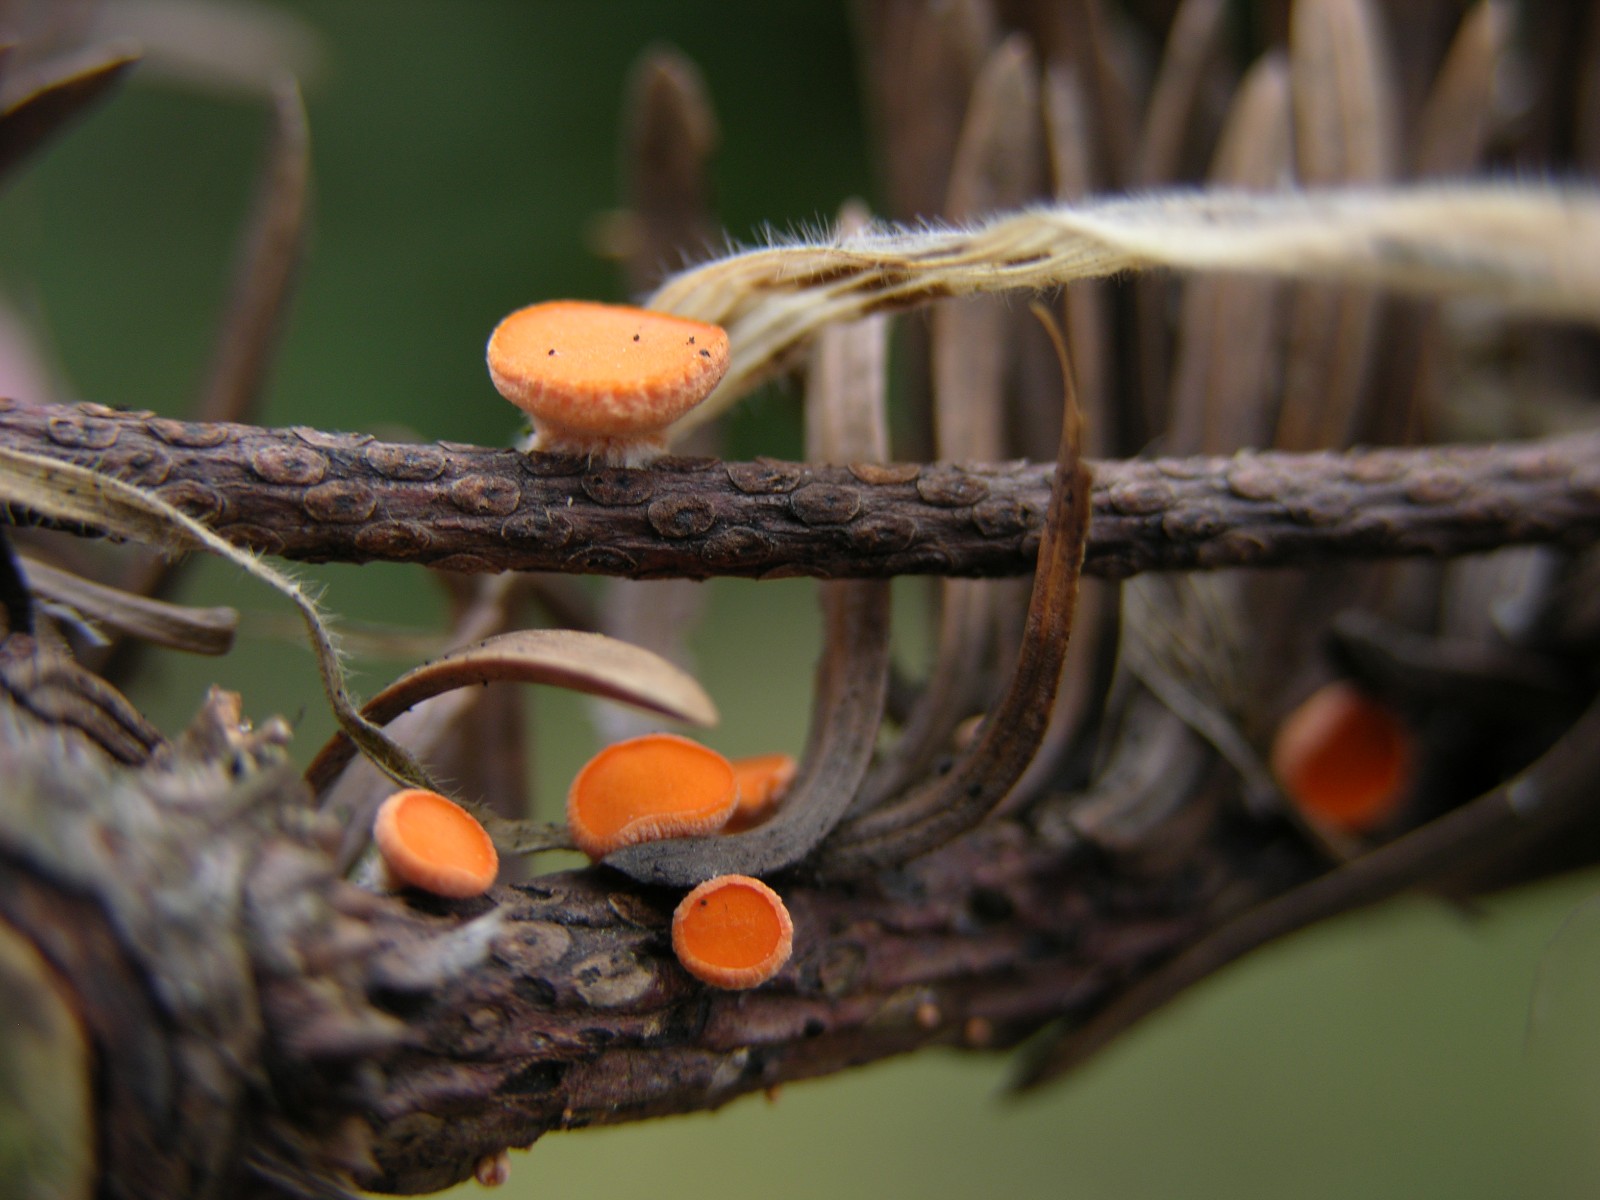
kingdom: Fungi
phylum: Ascomycota
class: Pezizomycetes
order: Pezizales
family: Sarcoscyphaceae
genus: Pithya
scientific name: Pithya vulgaris
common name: stor dukatbæger
